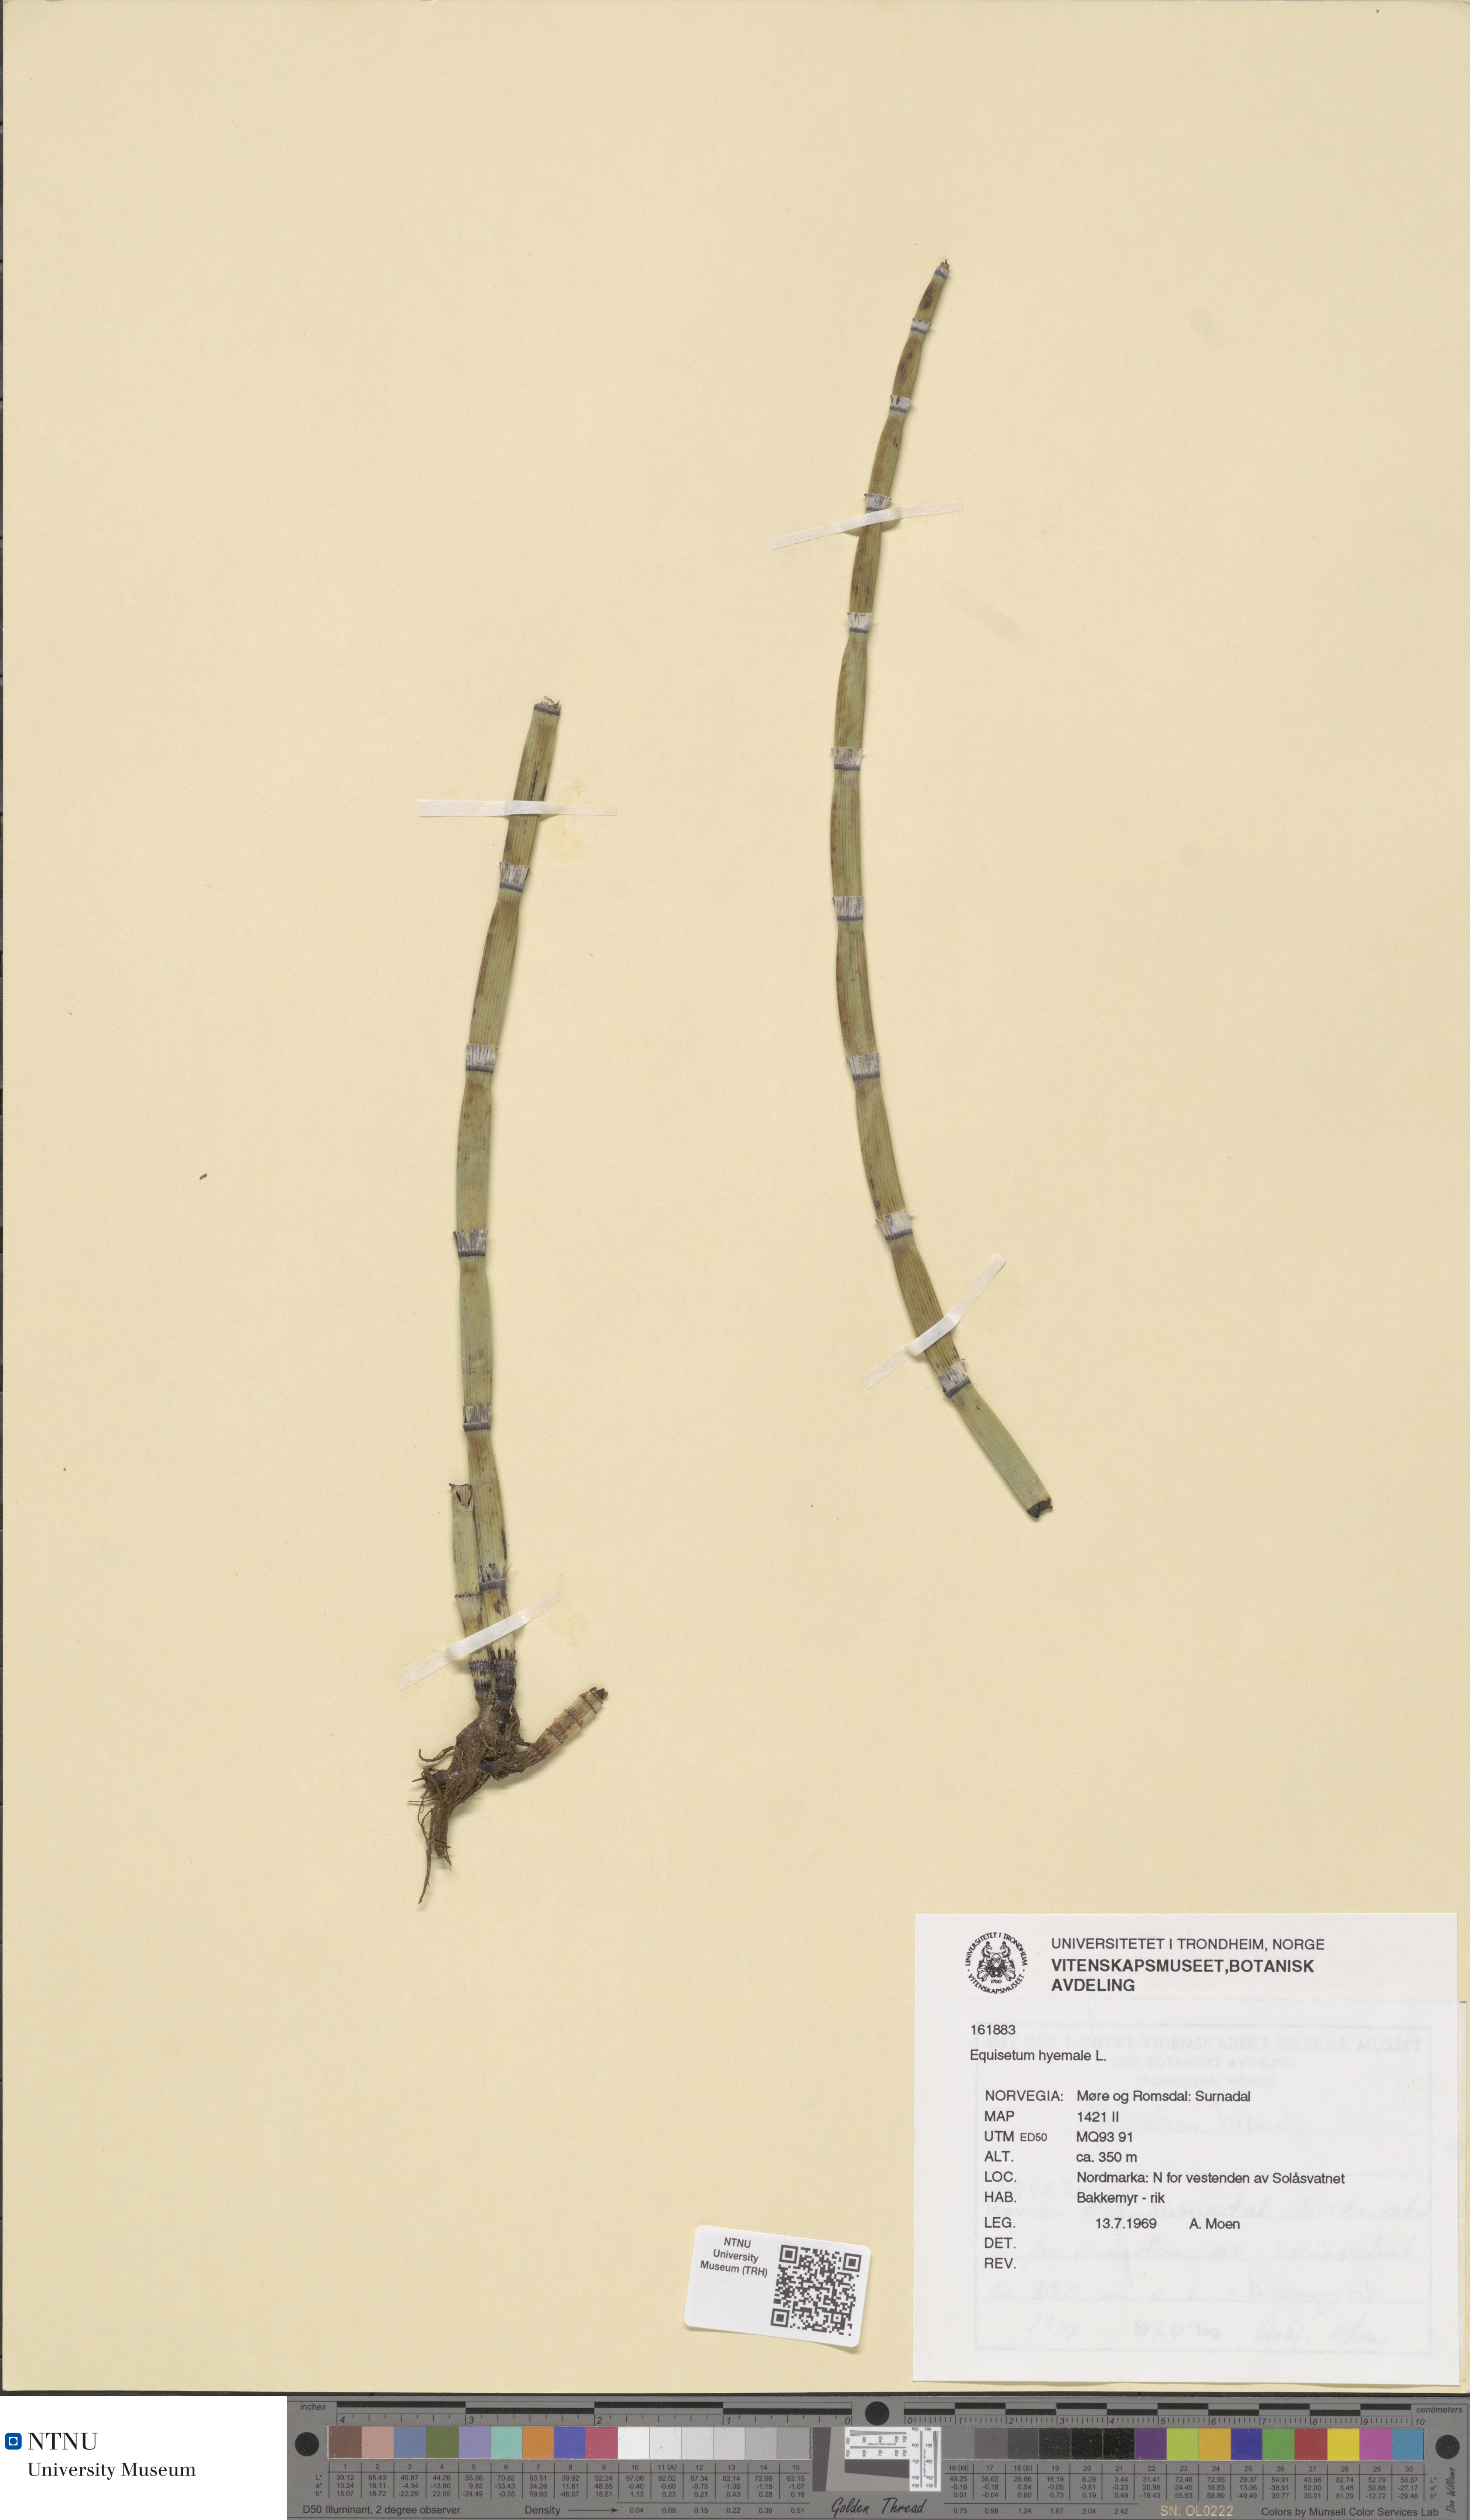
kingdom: Plantae
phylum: Tracheophyta
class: Polypodiopsida
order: Equisetales
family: Equisetaceae
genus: Equisetum
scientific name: Equisetum hyemale
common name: Rough horsetail
